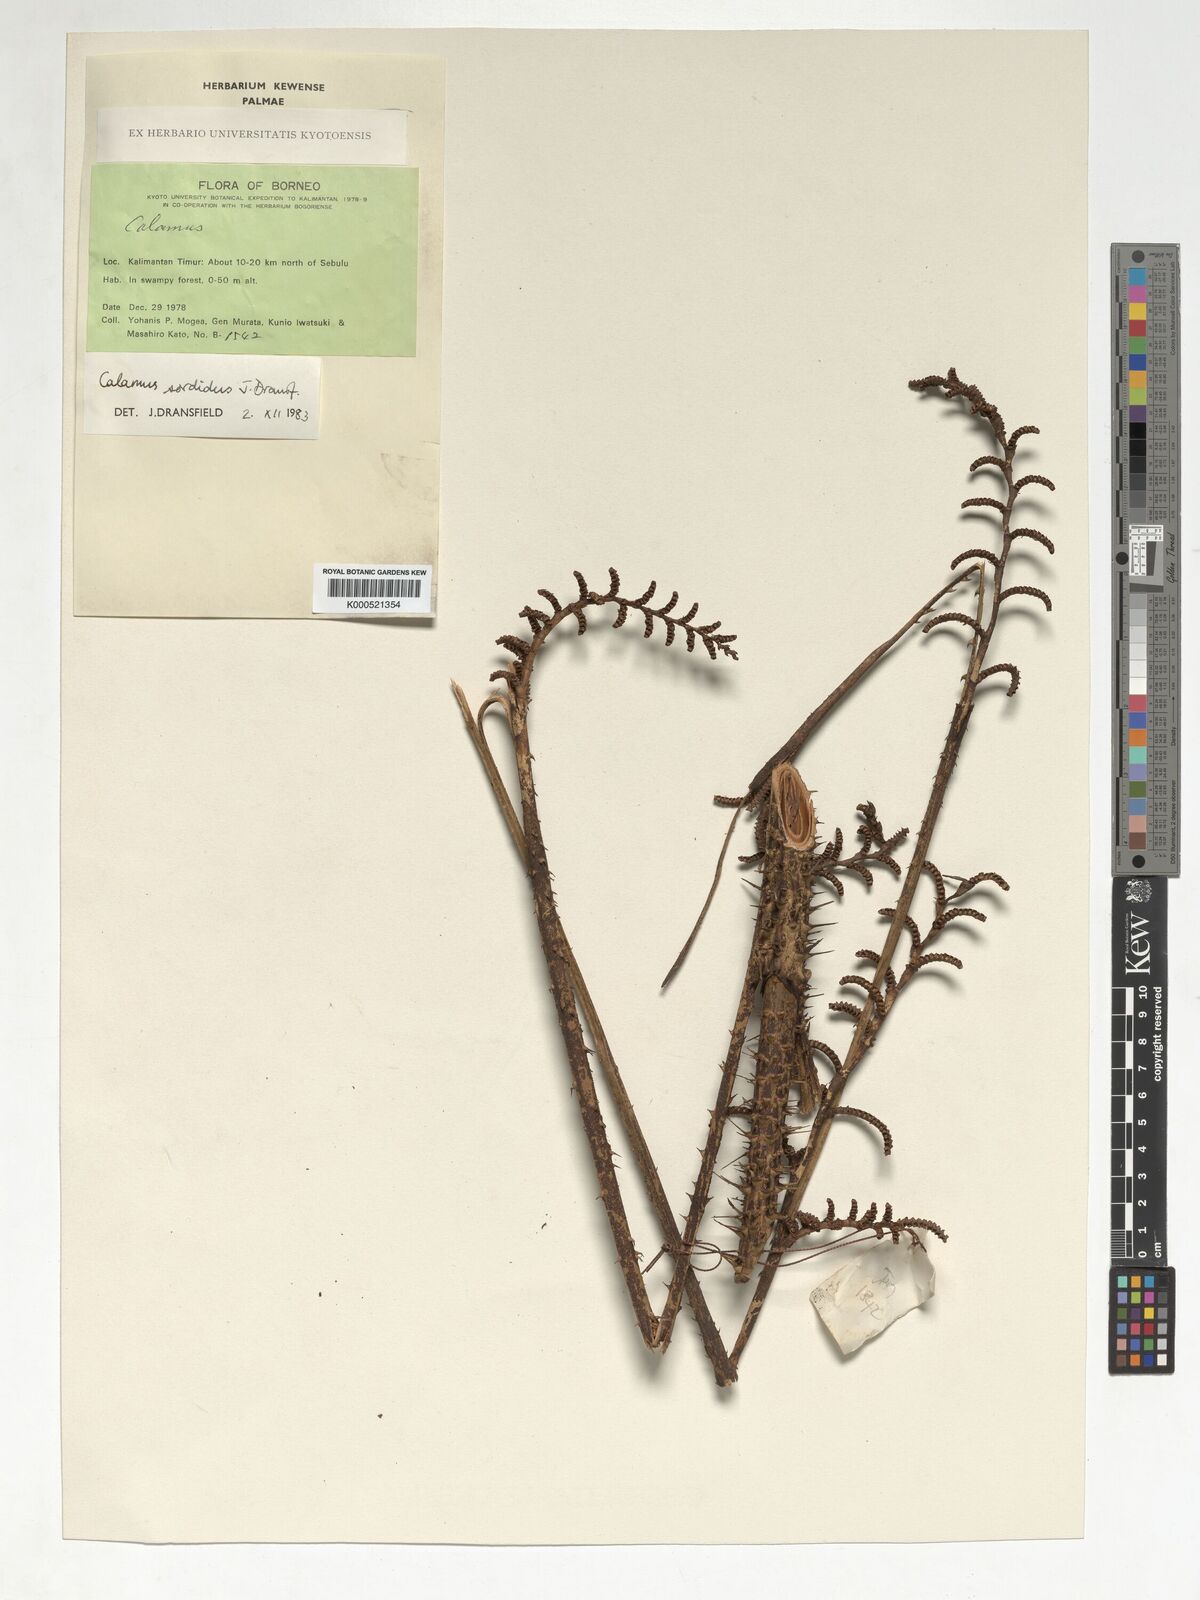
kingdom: Plantae
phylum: Tracheophyta
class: Liliopsida
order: Arecales
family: Arecaceae
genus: Calamus
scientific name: Calamus
